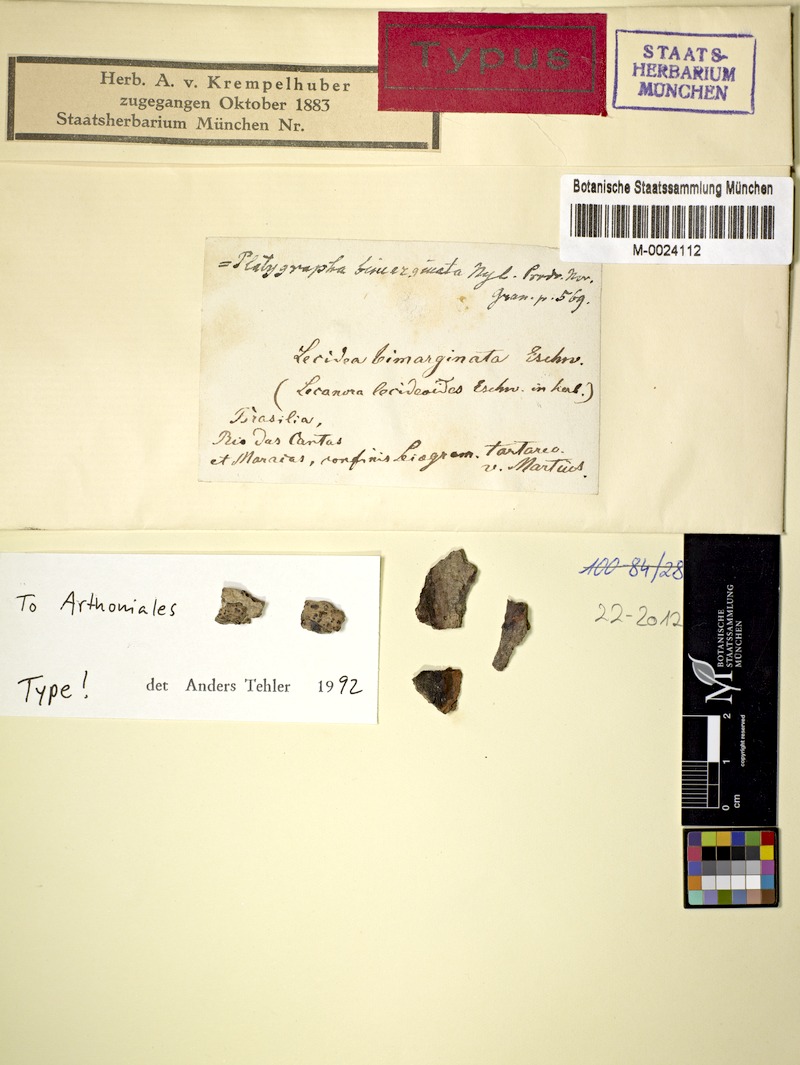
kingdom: Fungi
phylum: Ascomycota
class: Arthoniomycetes
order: Arthoniales
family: Roccellaceae
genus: Schismatomma
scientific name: Schismatomma bimarginatum
